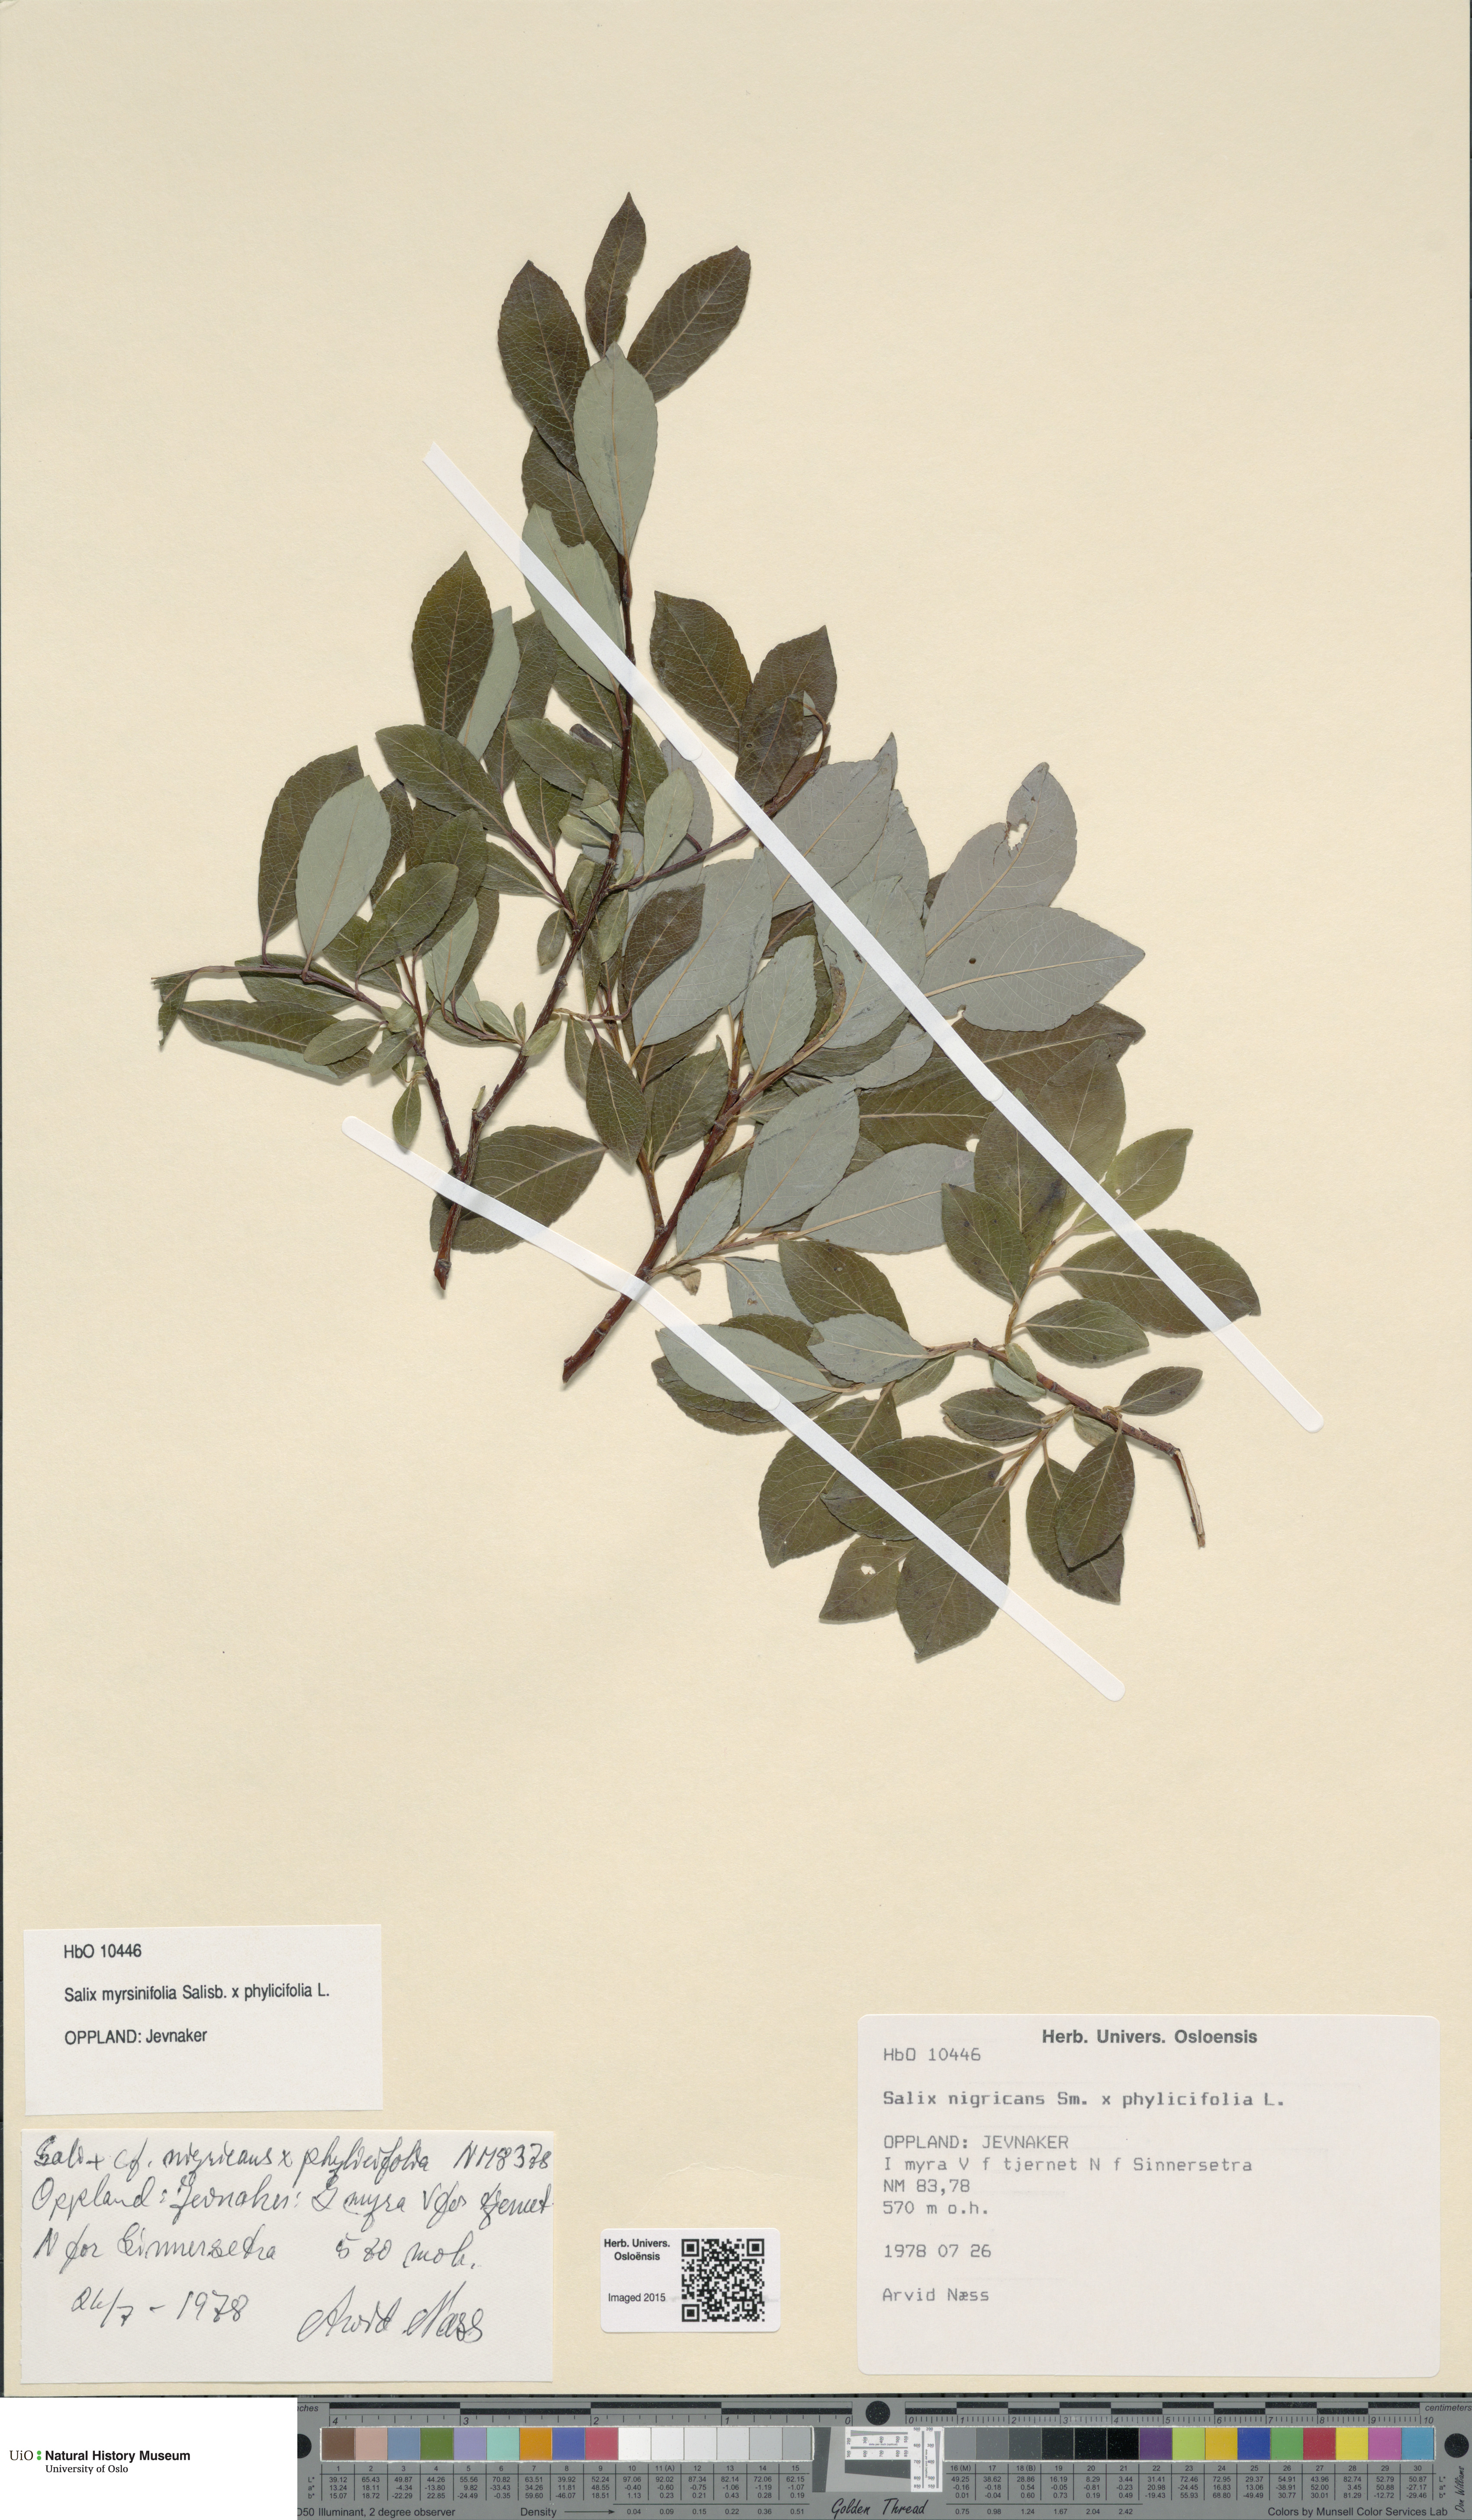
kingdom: Plantae
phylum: Tracheophyta
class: Magnoliopsida
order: Malpighiales
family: Salicaceae
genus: Salix
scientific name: Salix
